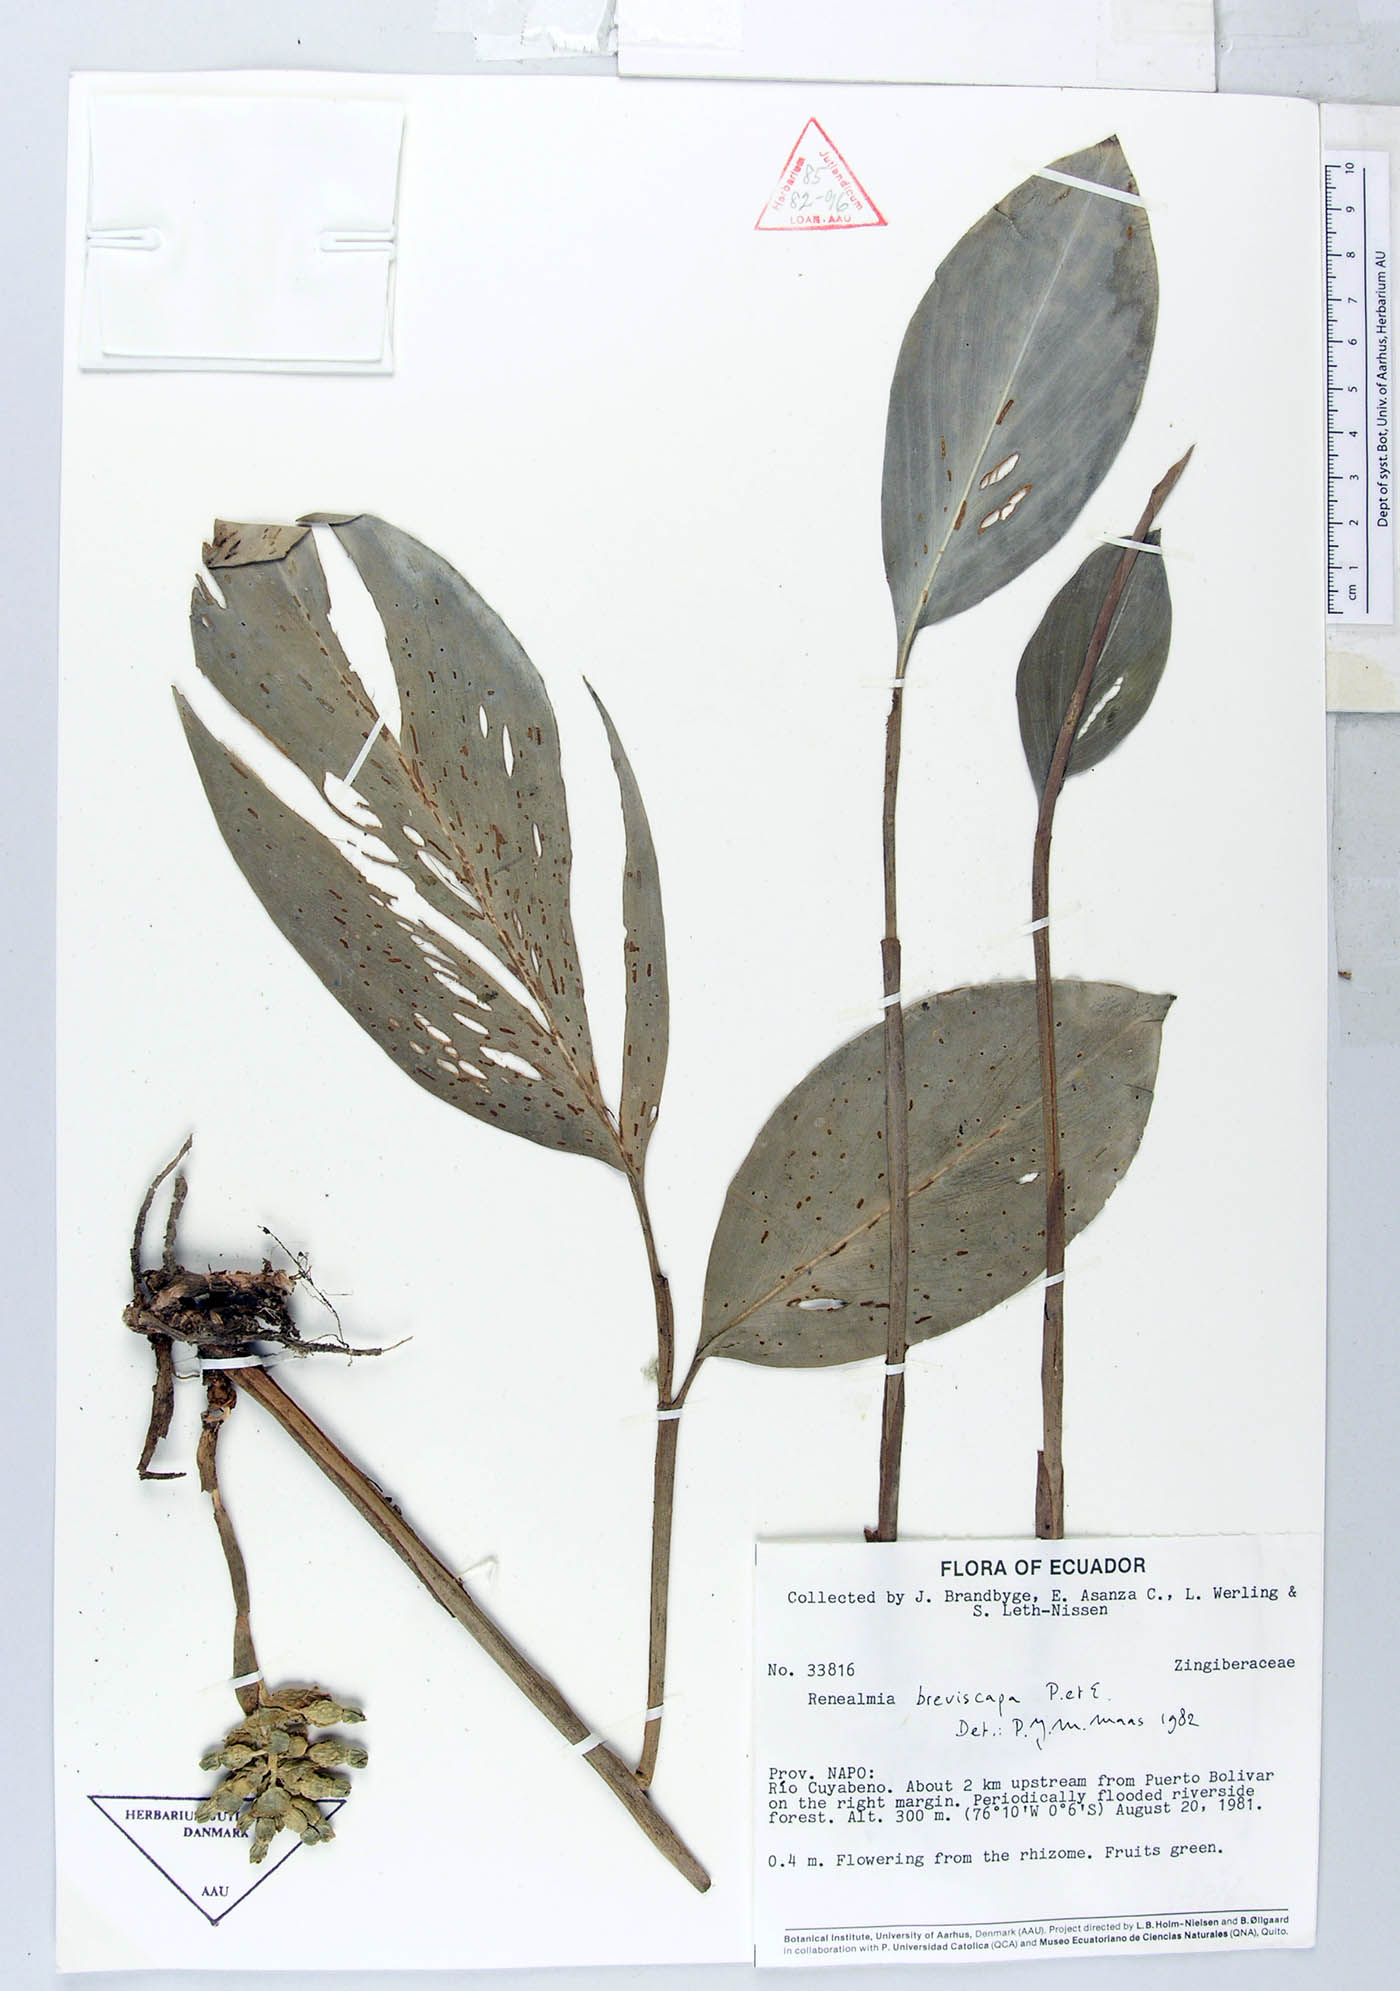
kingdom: Plantae
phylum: Tracheophyta
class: Liliopsida
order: Zingiberales
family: Zingiberaceae
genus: Renealmia
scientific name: Renealmia breviscapa
